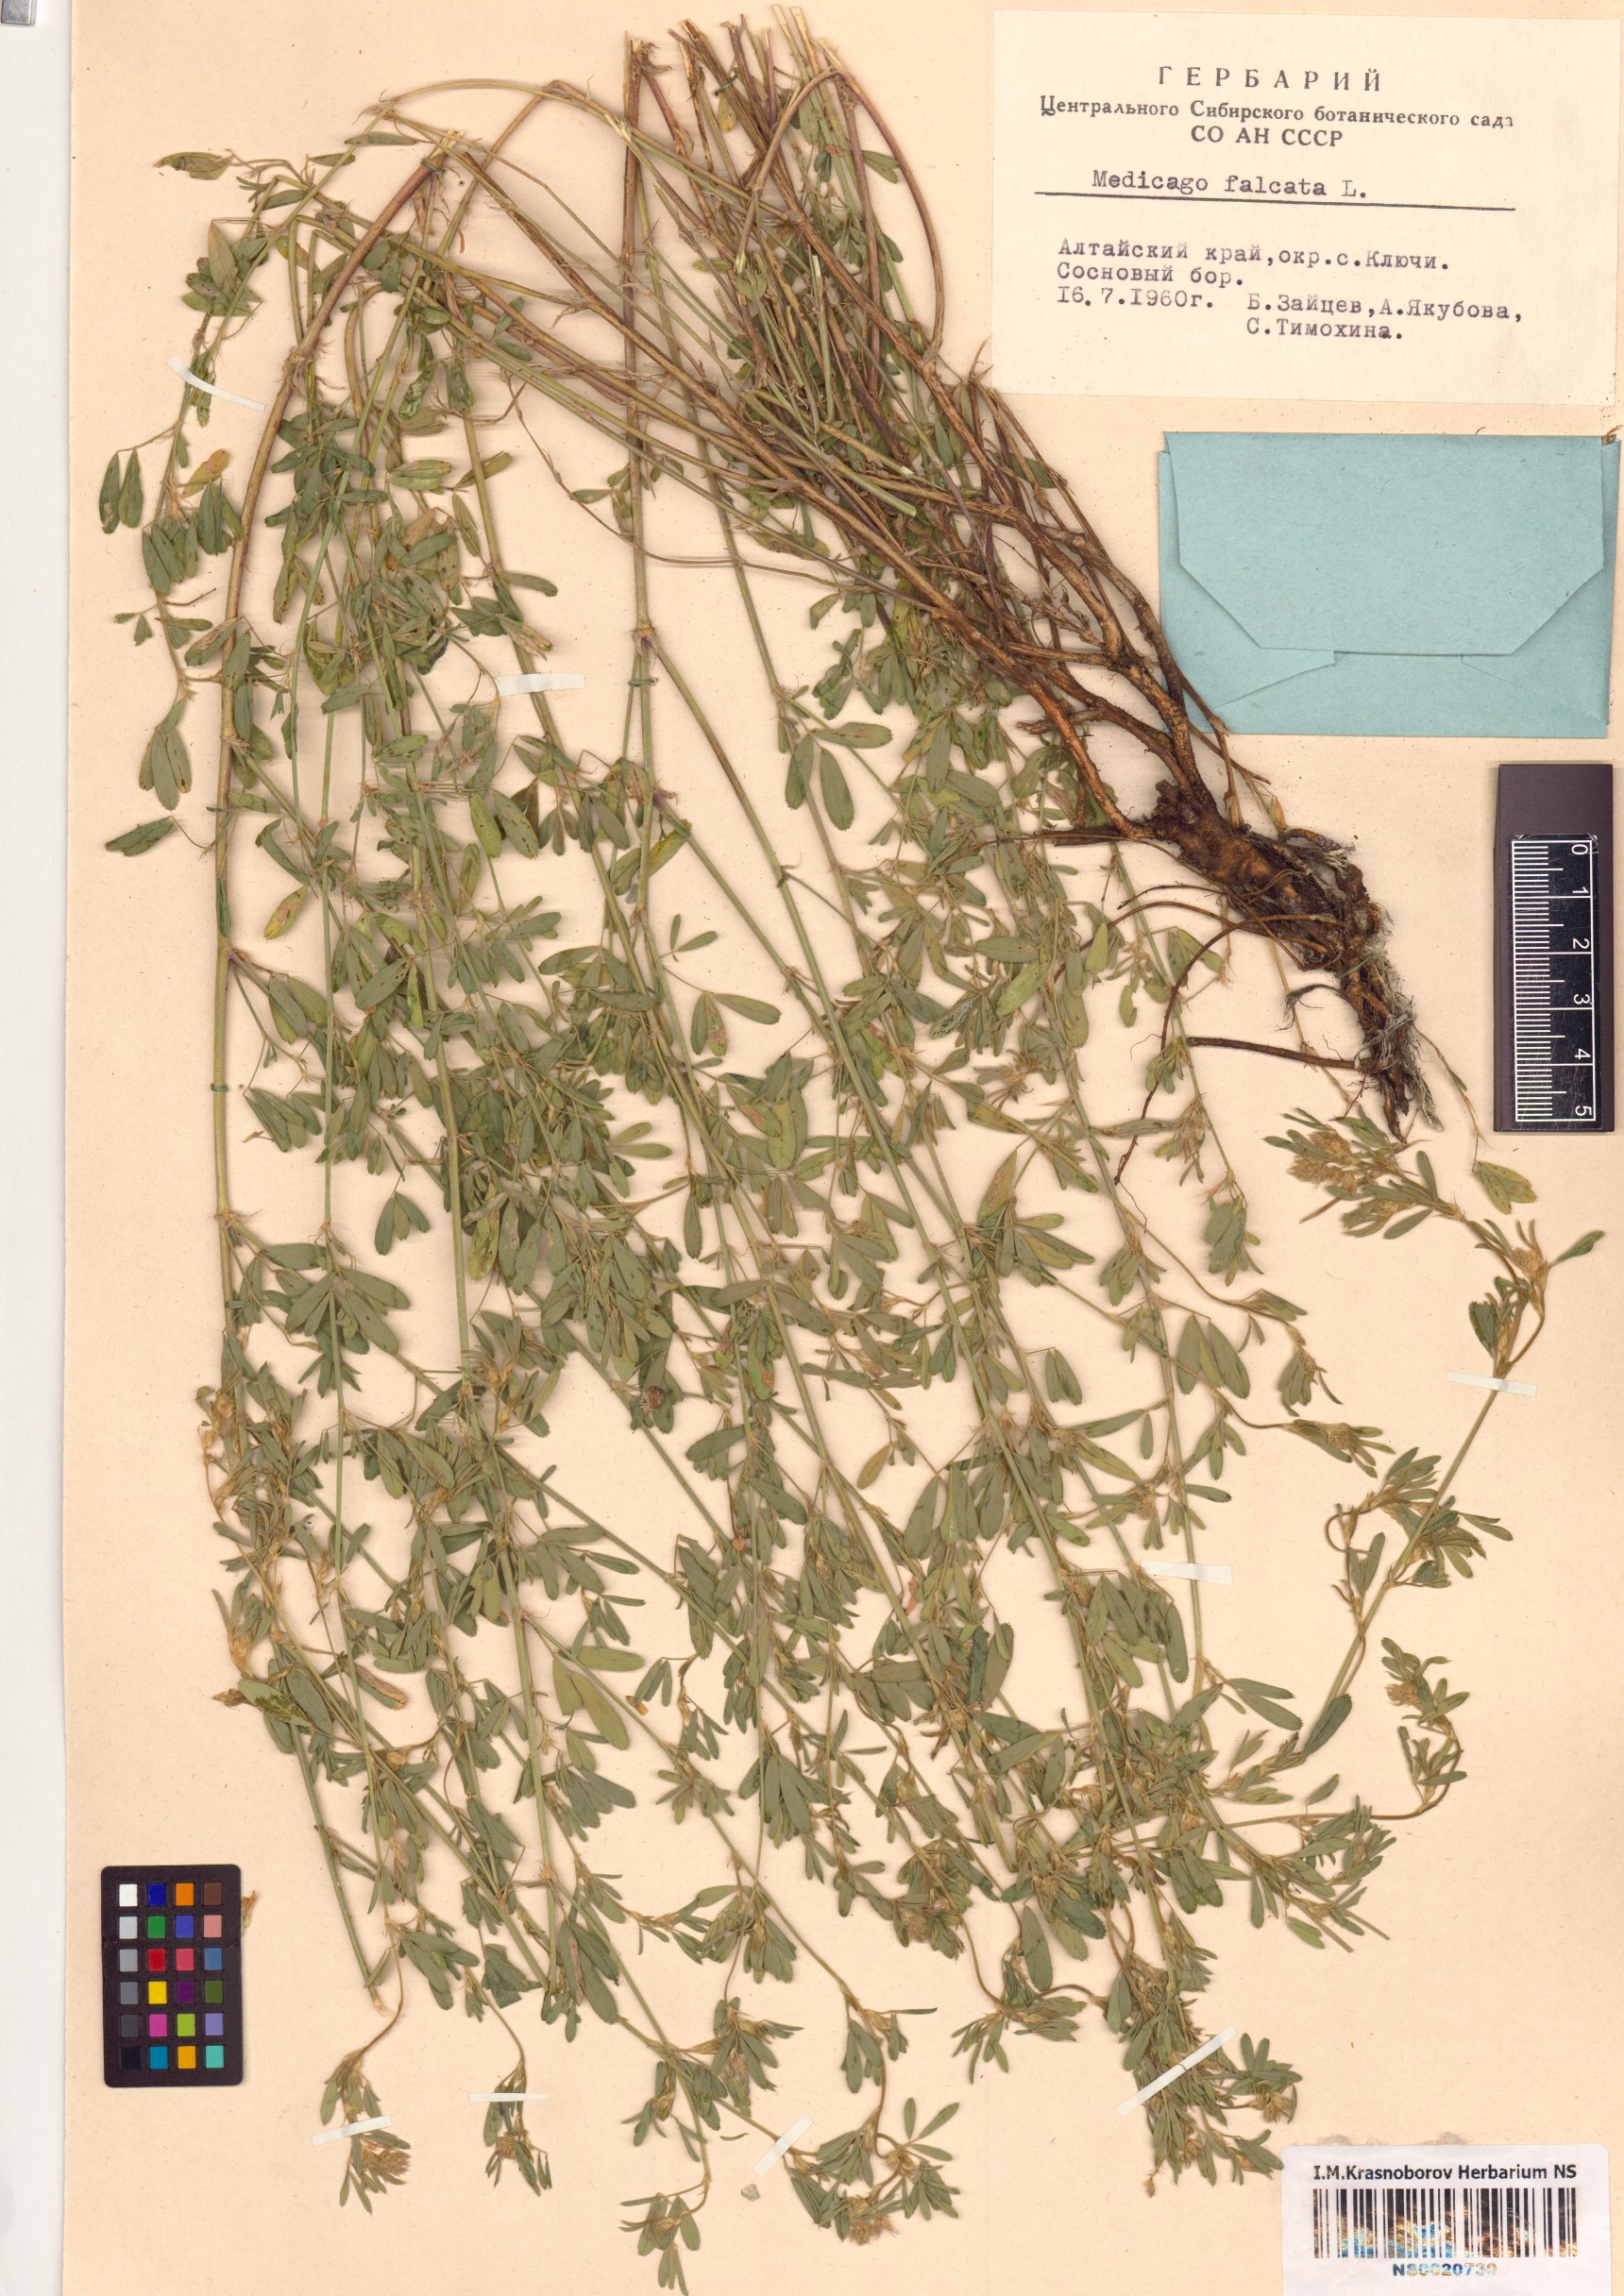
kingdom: Plantae
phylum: Tracheophyta
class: Magnoliopsida
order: Fabales
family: Fabaceae
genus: Medicago
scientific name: Medicago falcata
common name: Sickle medick
